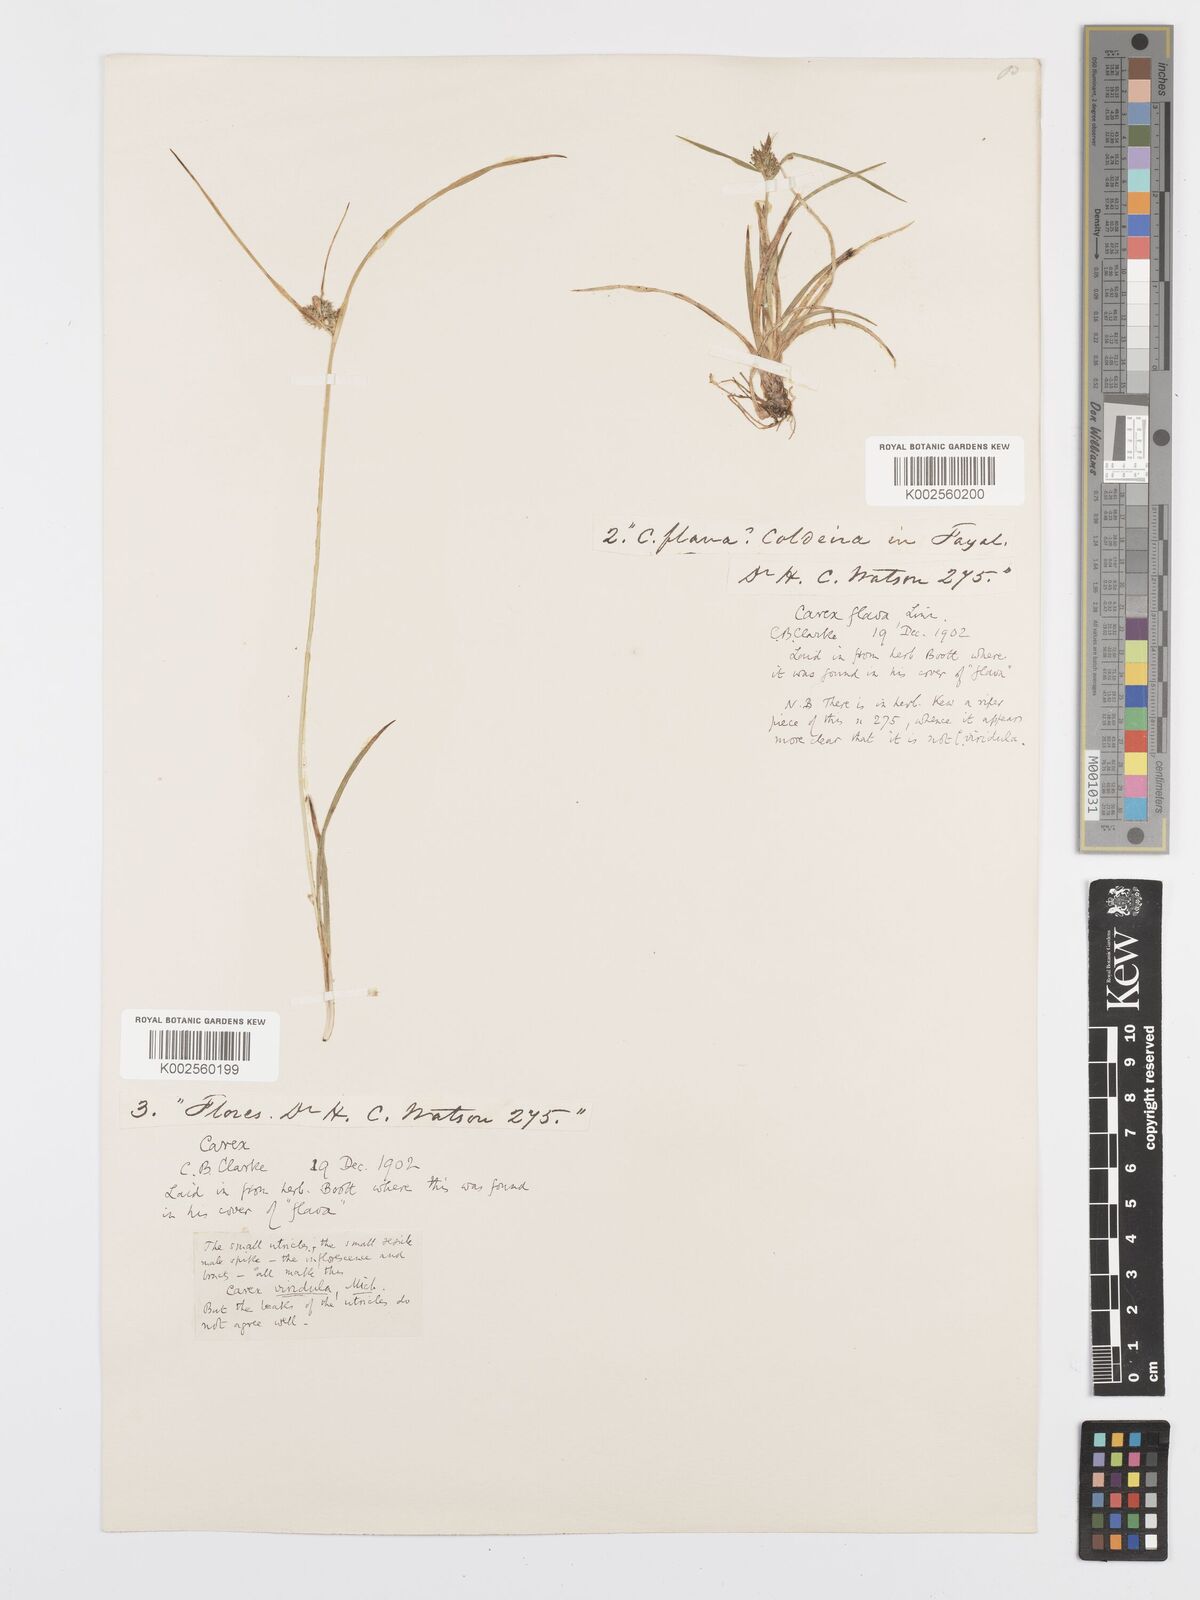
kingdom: Plantae
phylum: Tracheophyta
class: Liliopsida
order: Poales
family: Cyperaceae
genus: Carex
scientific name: Carex oederi
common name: Common & small-fruited yellow-sedge
